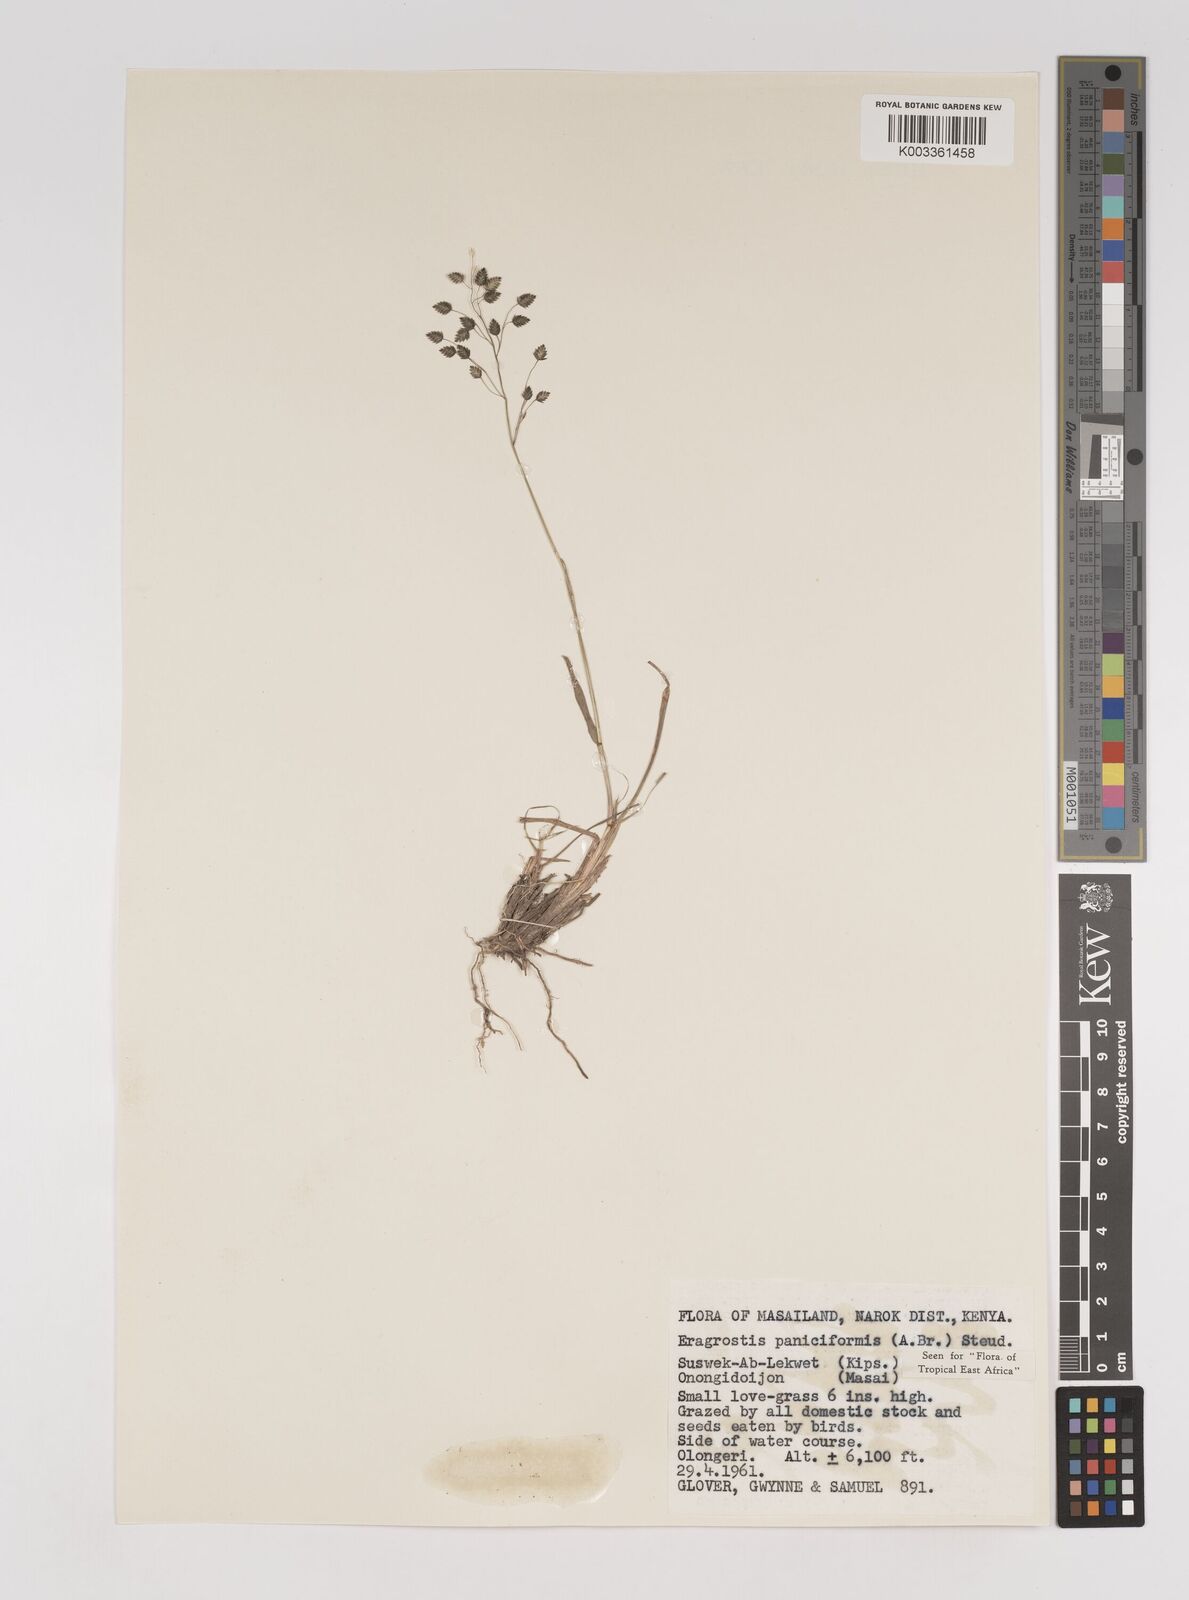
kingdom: Plantae
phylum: Tracheophyta
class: Liliopsida
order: Poales
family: Poaceae
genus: Eragrostis
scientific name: Eragrostis paniciformis
